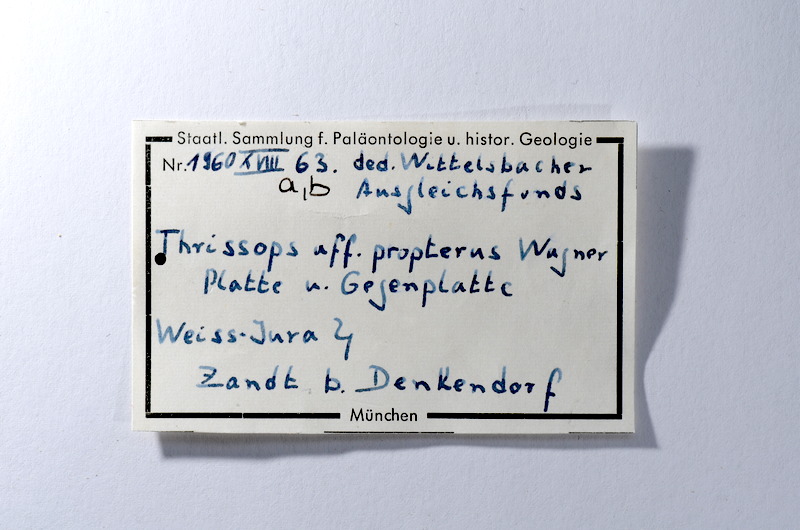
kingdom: Animalia
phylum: Chordata
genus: Pachythrissops
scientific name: Pachythrissops propterus
